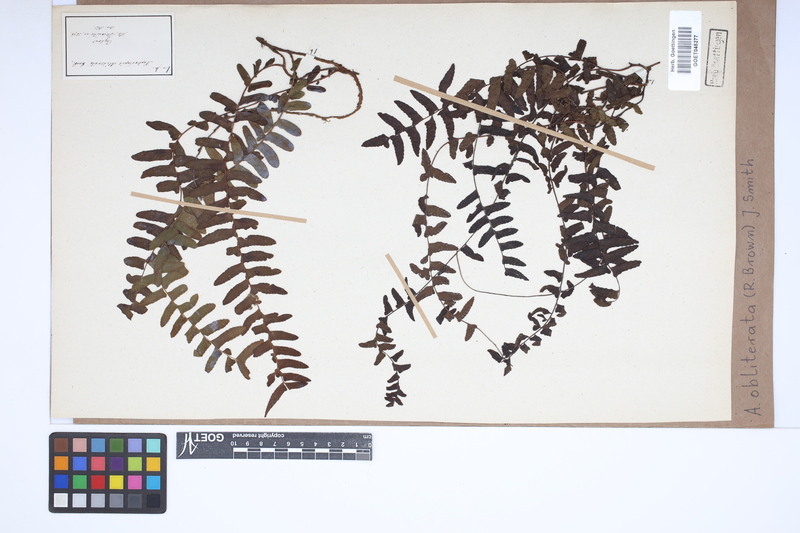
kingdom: Plantae
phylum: Tracheophyta
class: Polypodiopsida
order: Polypodiales
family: Nephrolepidaceae
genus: Nephrolepis
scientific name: Nephrolepis obliterata
